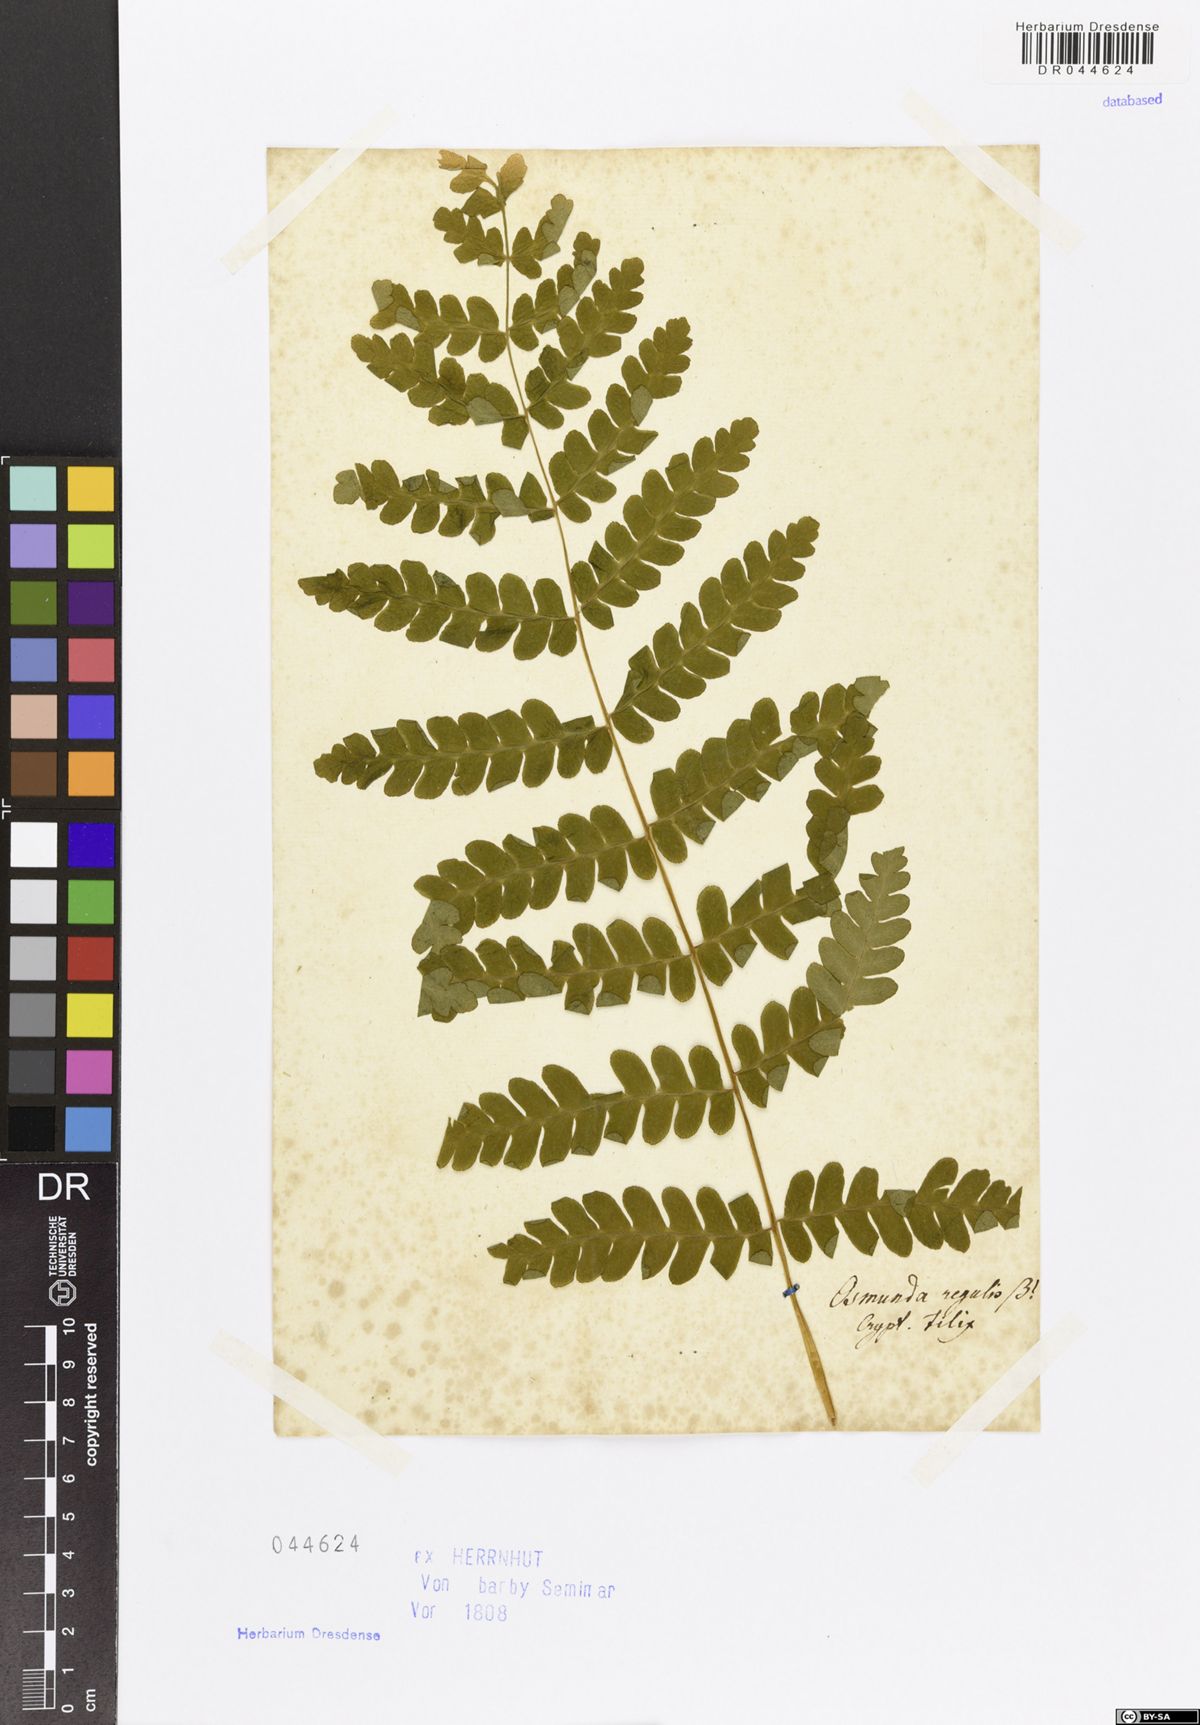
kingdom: Plantae
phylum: Tracheophyta
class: Polypodiopsida
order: Osmundales
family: Osmundaceae
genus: Osmunda
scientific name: Osmunda regalis
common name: Royal fern
